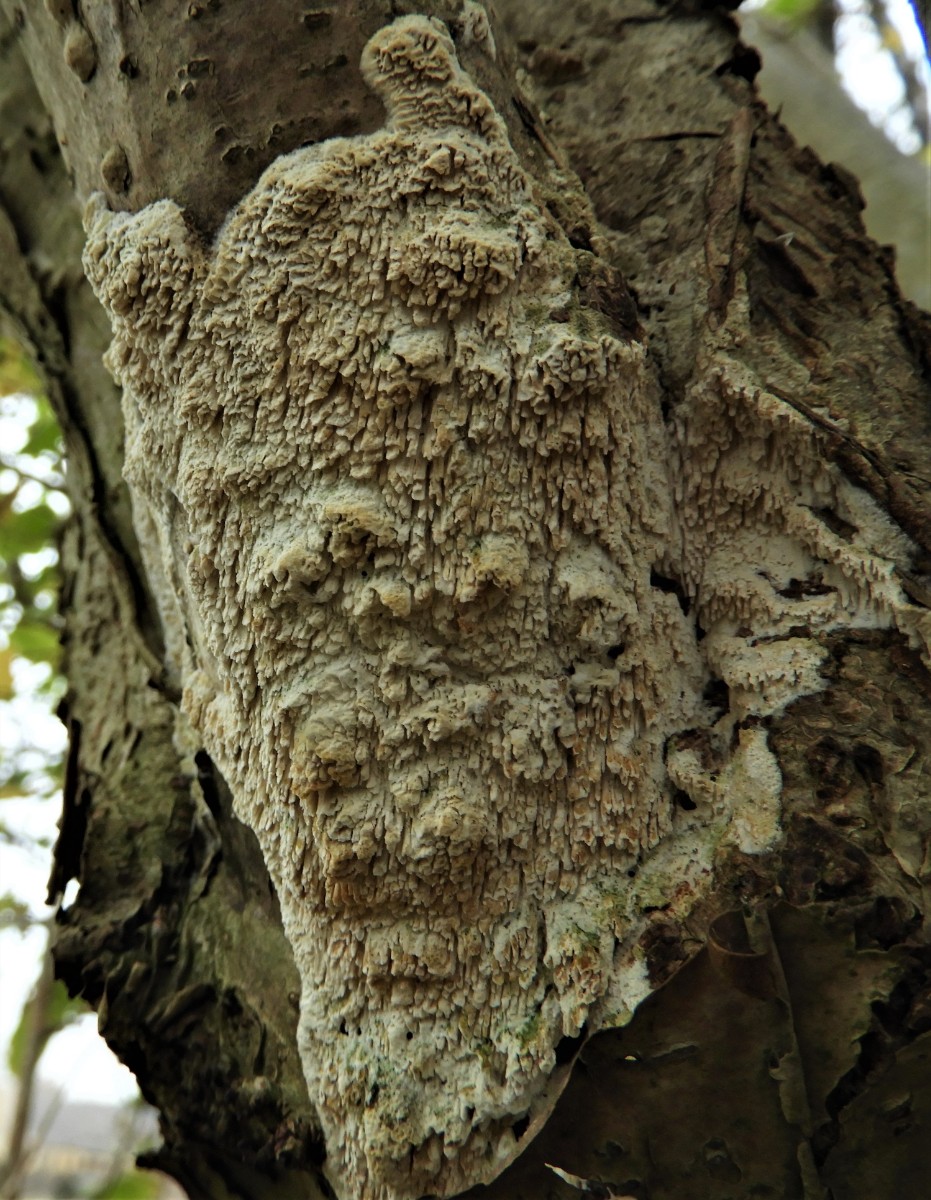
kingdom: Fungi
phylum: Basidiomycota
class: Agaricomycetes
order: Hymenochaetales
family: Schizoporaceae
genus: Xylodon
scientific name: Xylodon radula
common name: grovtandet kalkskind
